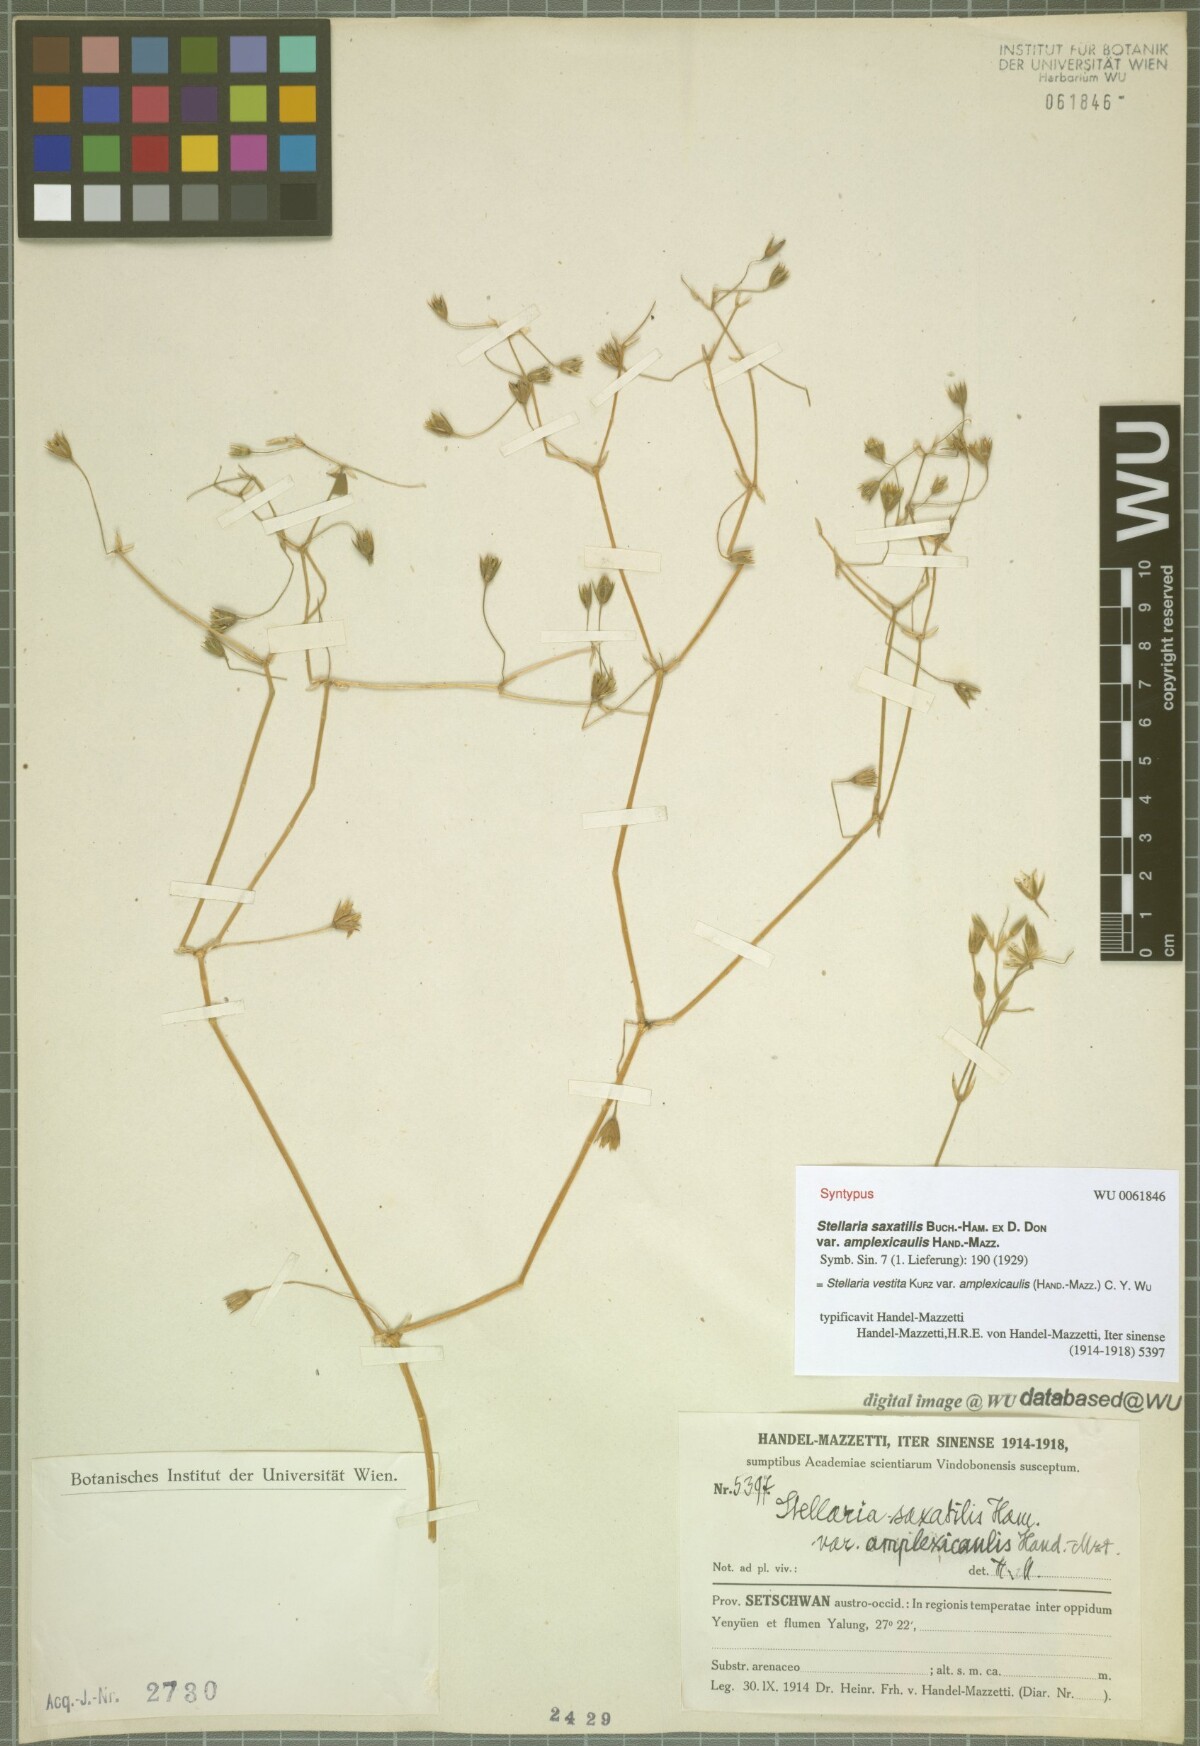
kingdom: Plantae
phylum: Tracheophyta
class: Magnoliopsida
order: Caryophyllales
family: Caryophyllaceae
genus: Stellaria
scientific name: Stellaria amplexicaulis
